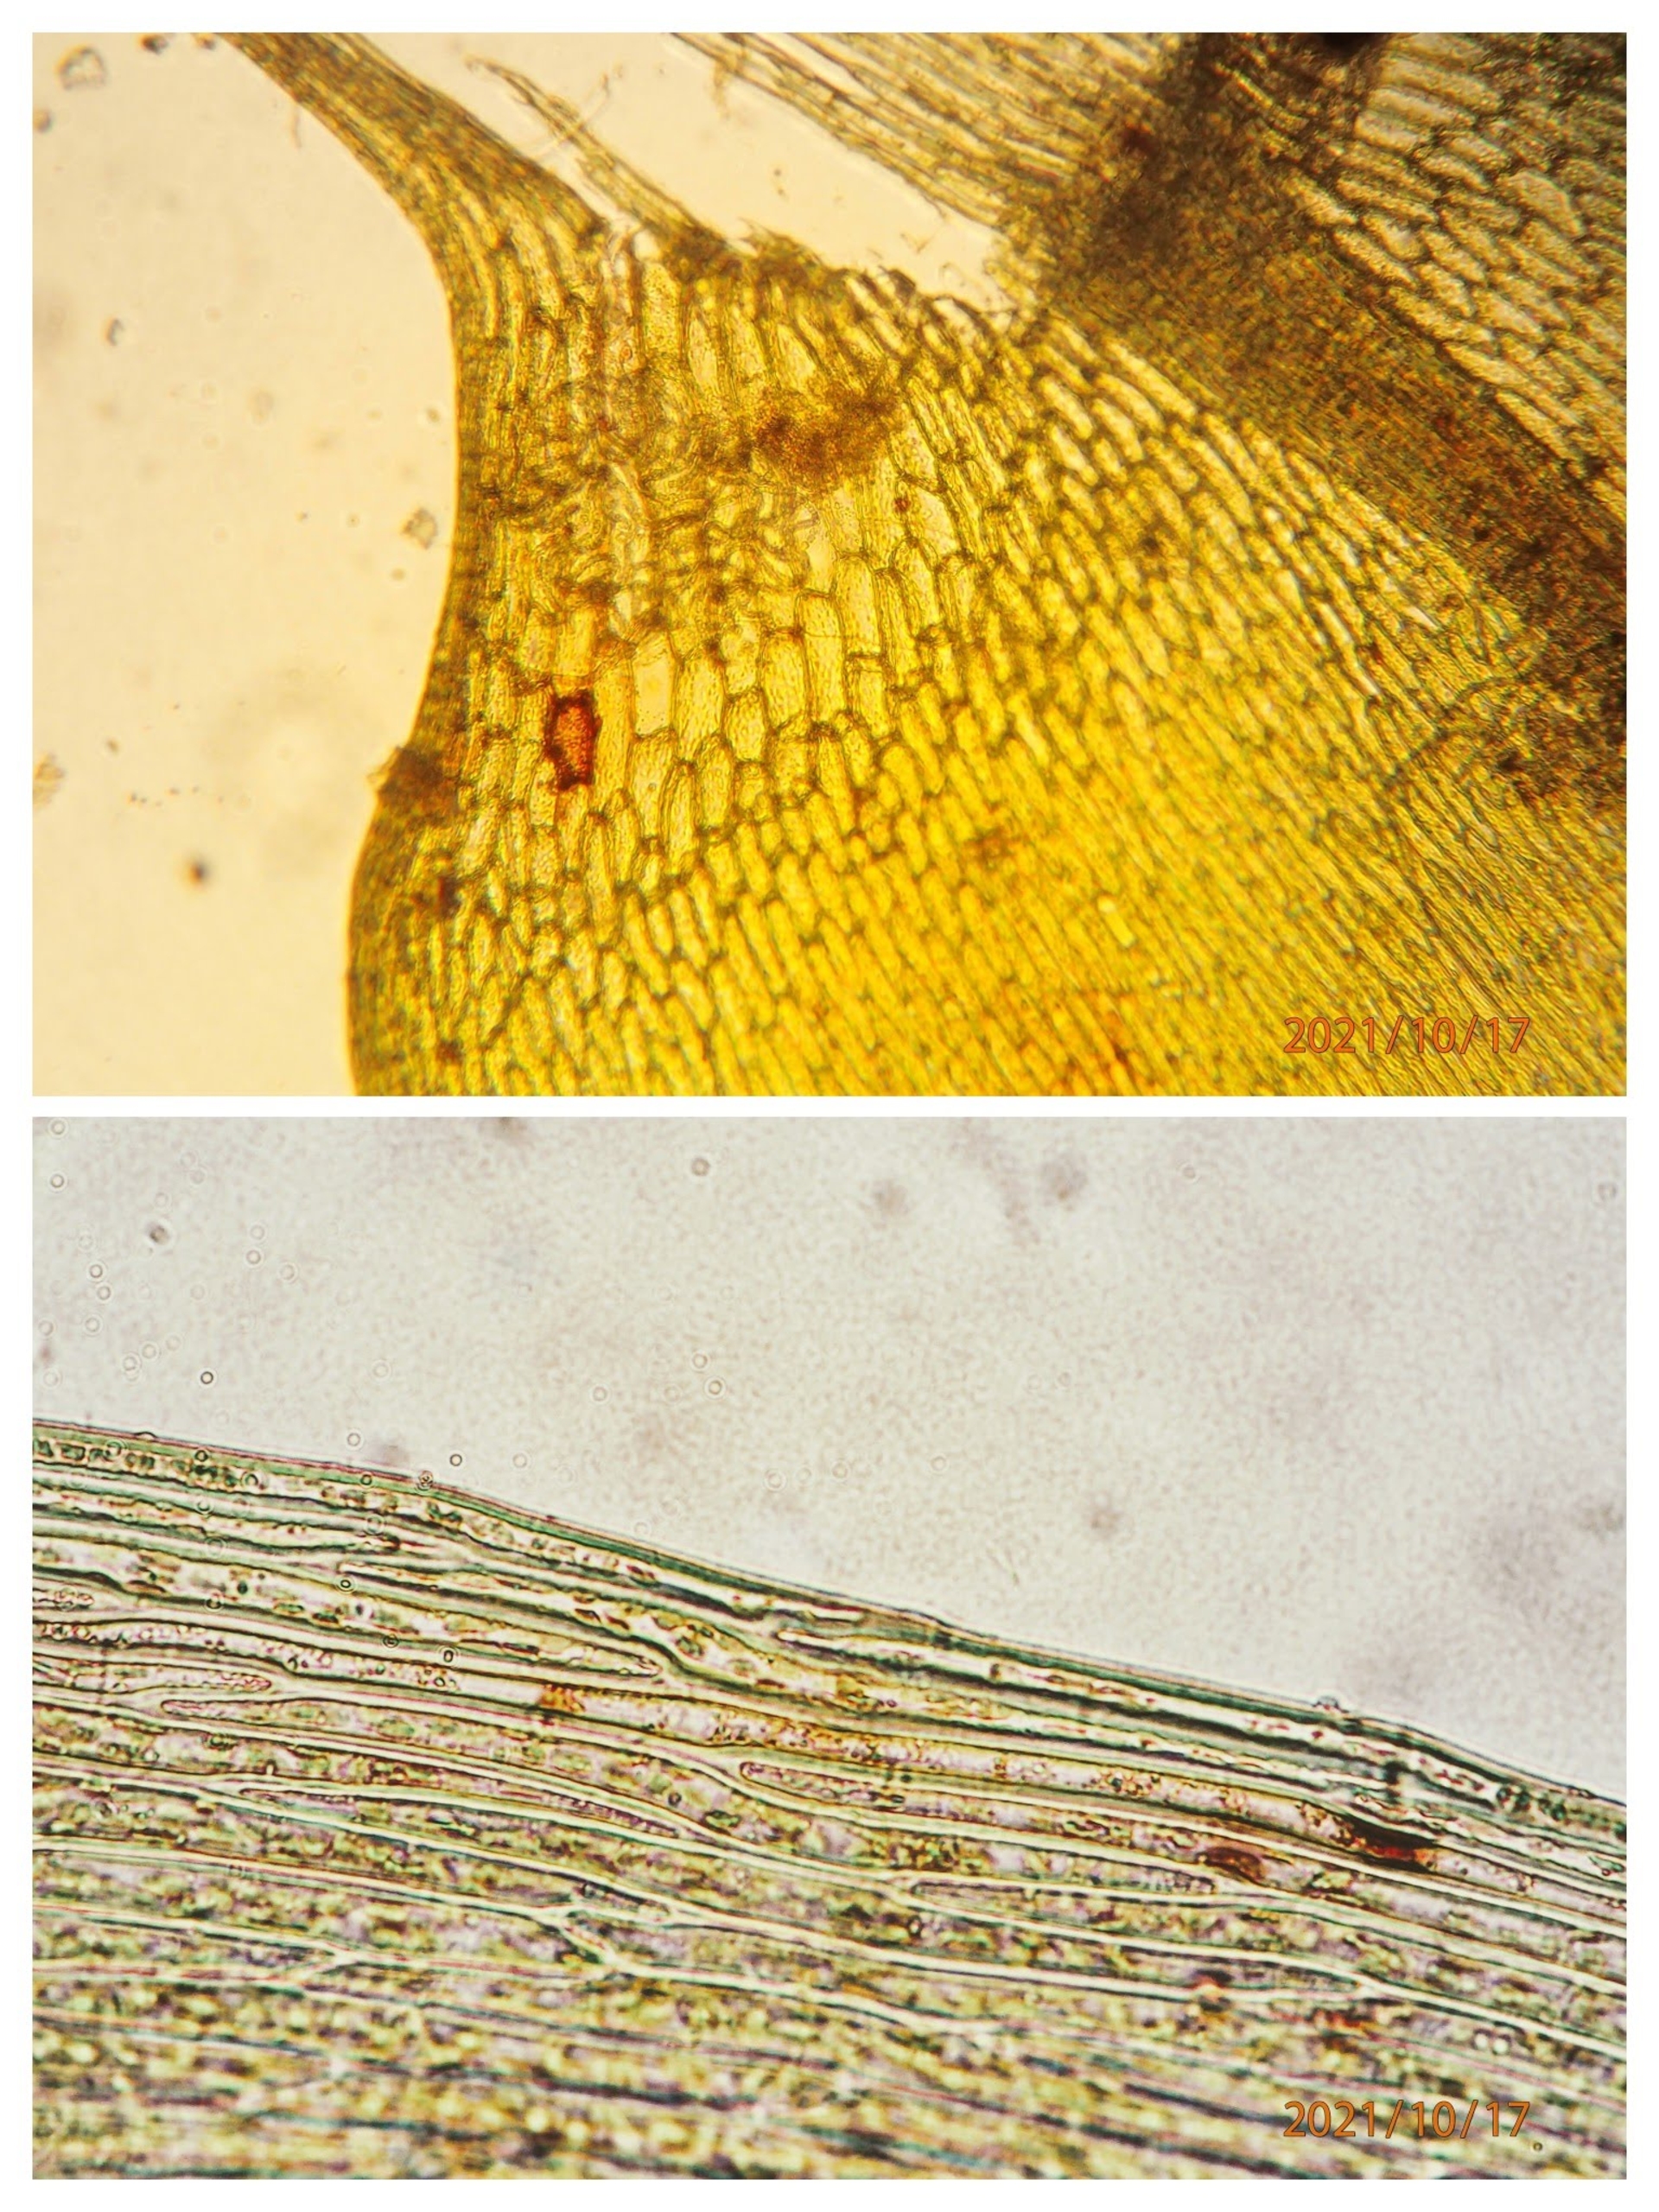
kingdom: Plantae
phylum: Bryophyta
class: Bryopsida
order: Hypnales
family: Calliergonaceae
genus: Calliergon
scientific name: Calliergon cordifolium
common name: Almindelig skebladsmos
